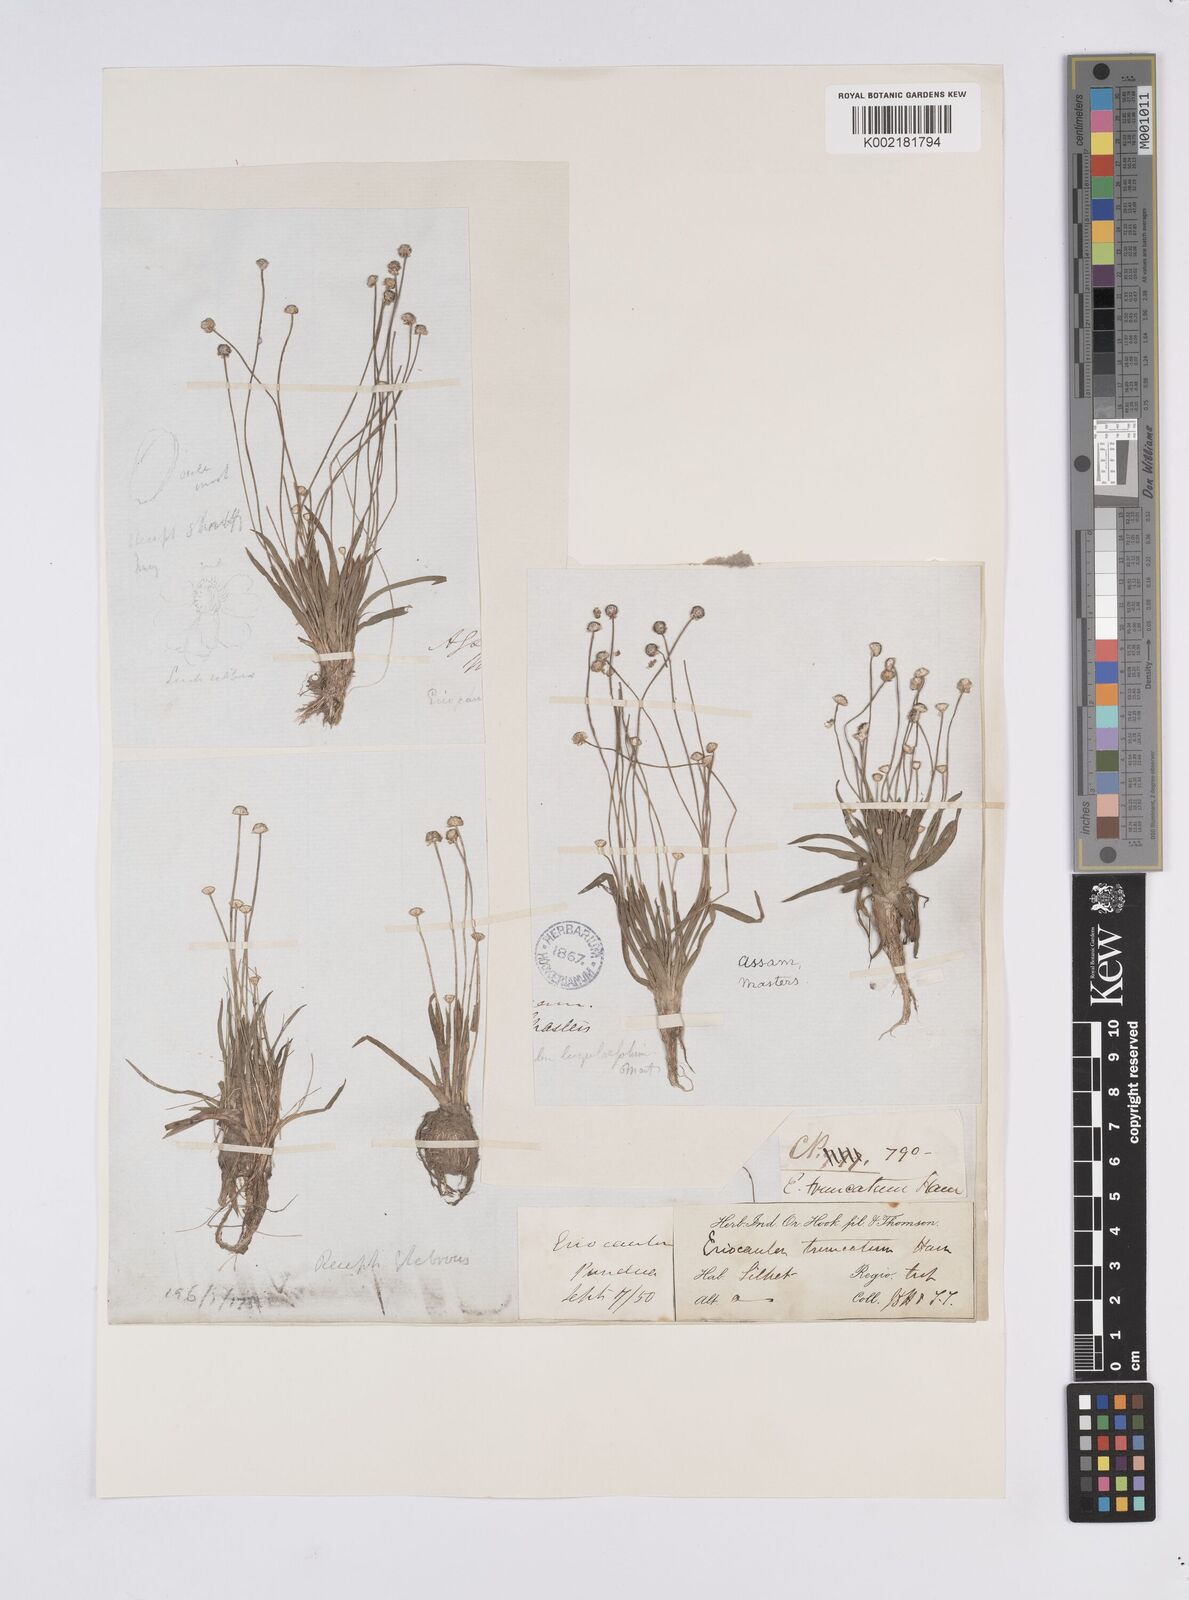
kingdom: Plantae
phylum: Tracheophyta
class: Liliopsida
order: Poales
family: Eriocaulaceae
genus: Eriocaulon
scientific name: Eriocaulon truncatum
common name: Short pipe-wort
